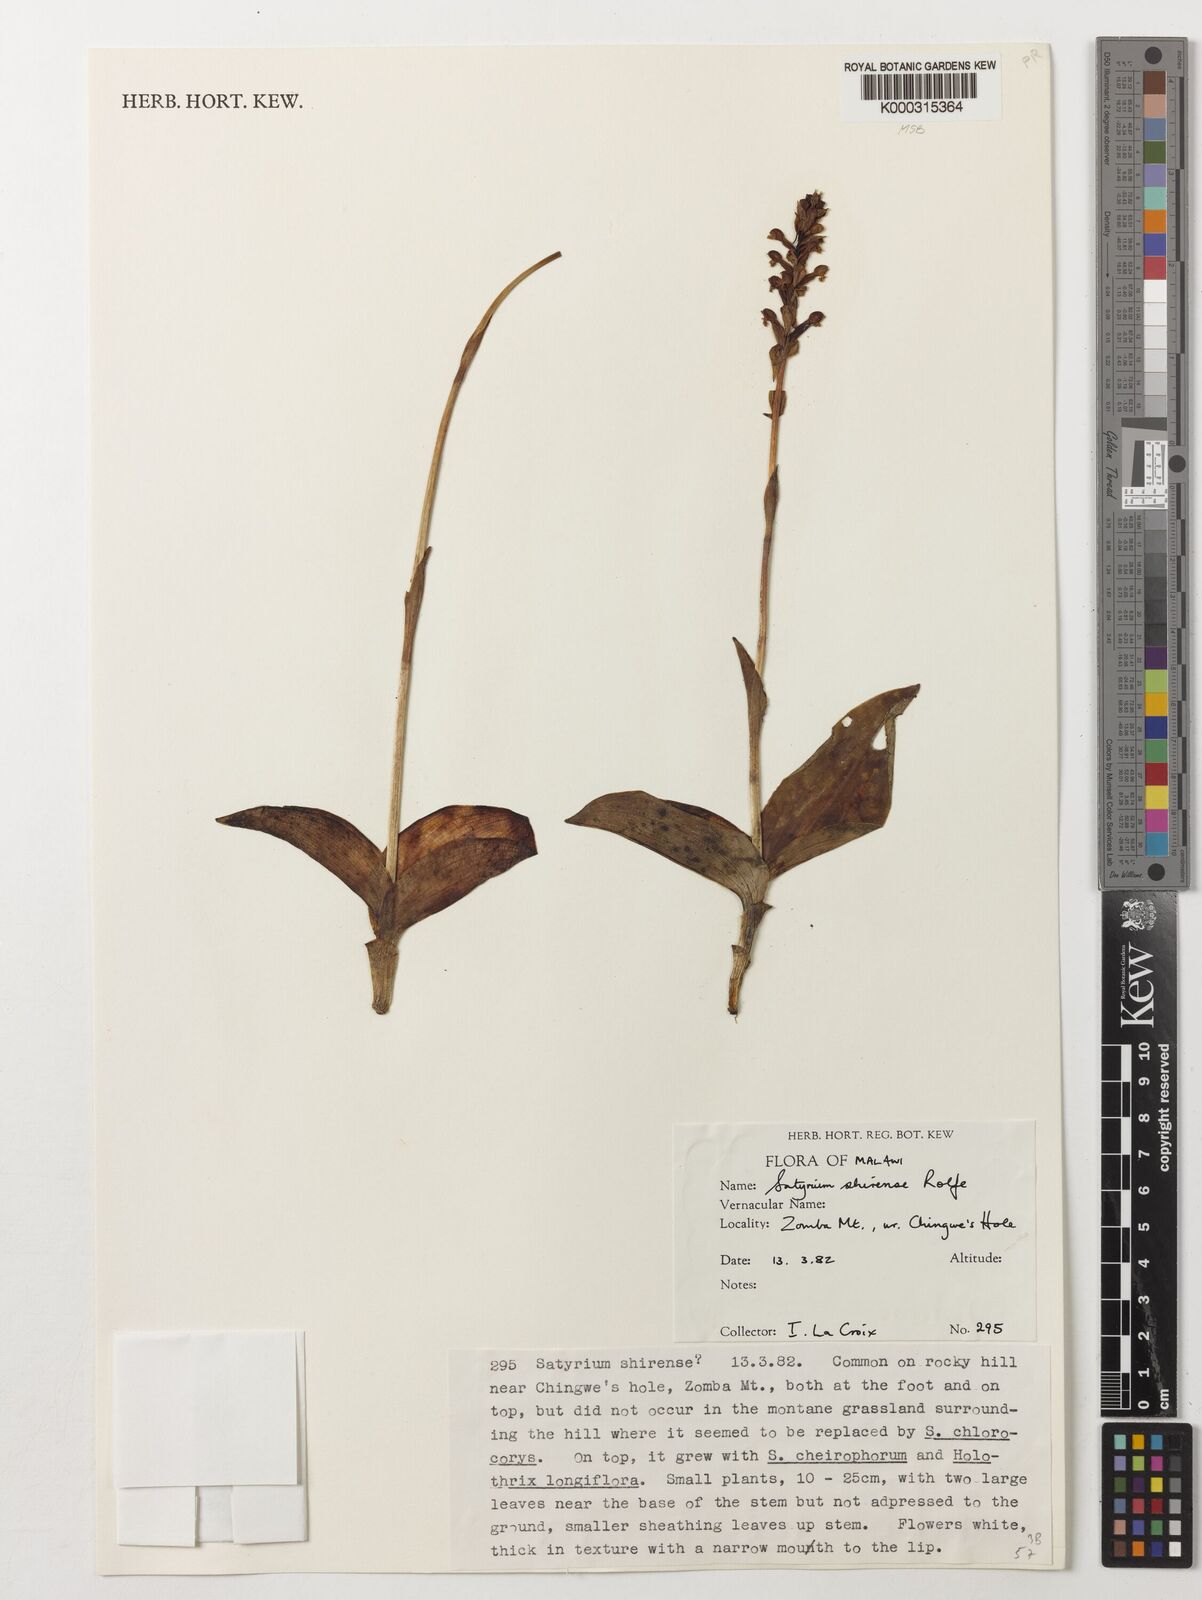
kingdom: Plantae
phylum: Tracheophyta
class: Liliopsida
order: Asparagales
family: Orchidaceae
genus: Satyrium
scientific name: Satyrium shirense
